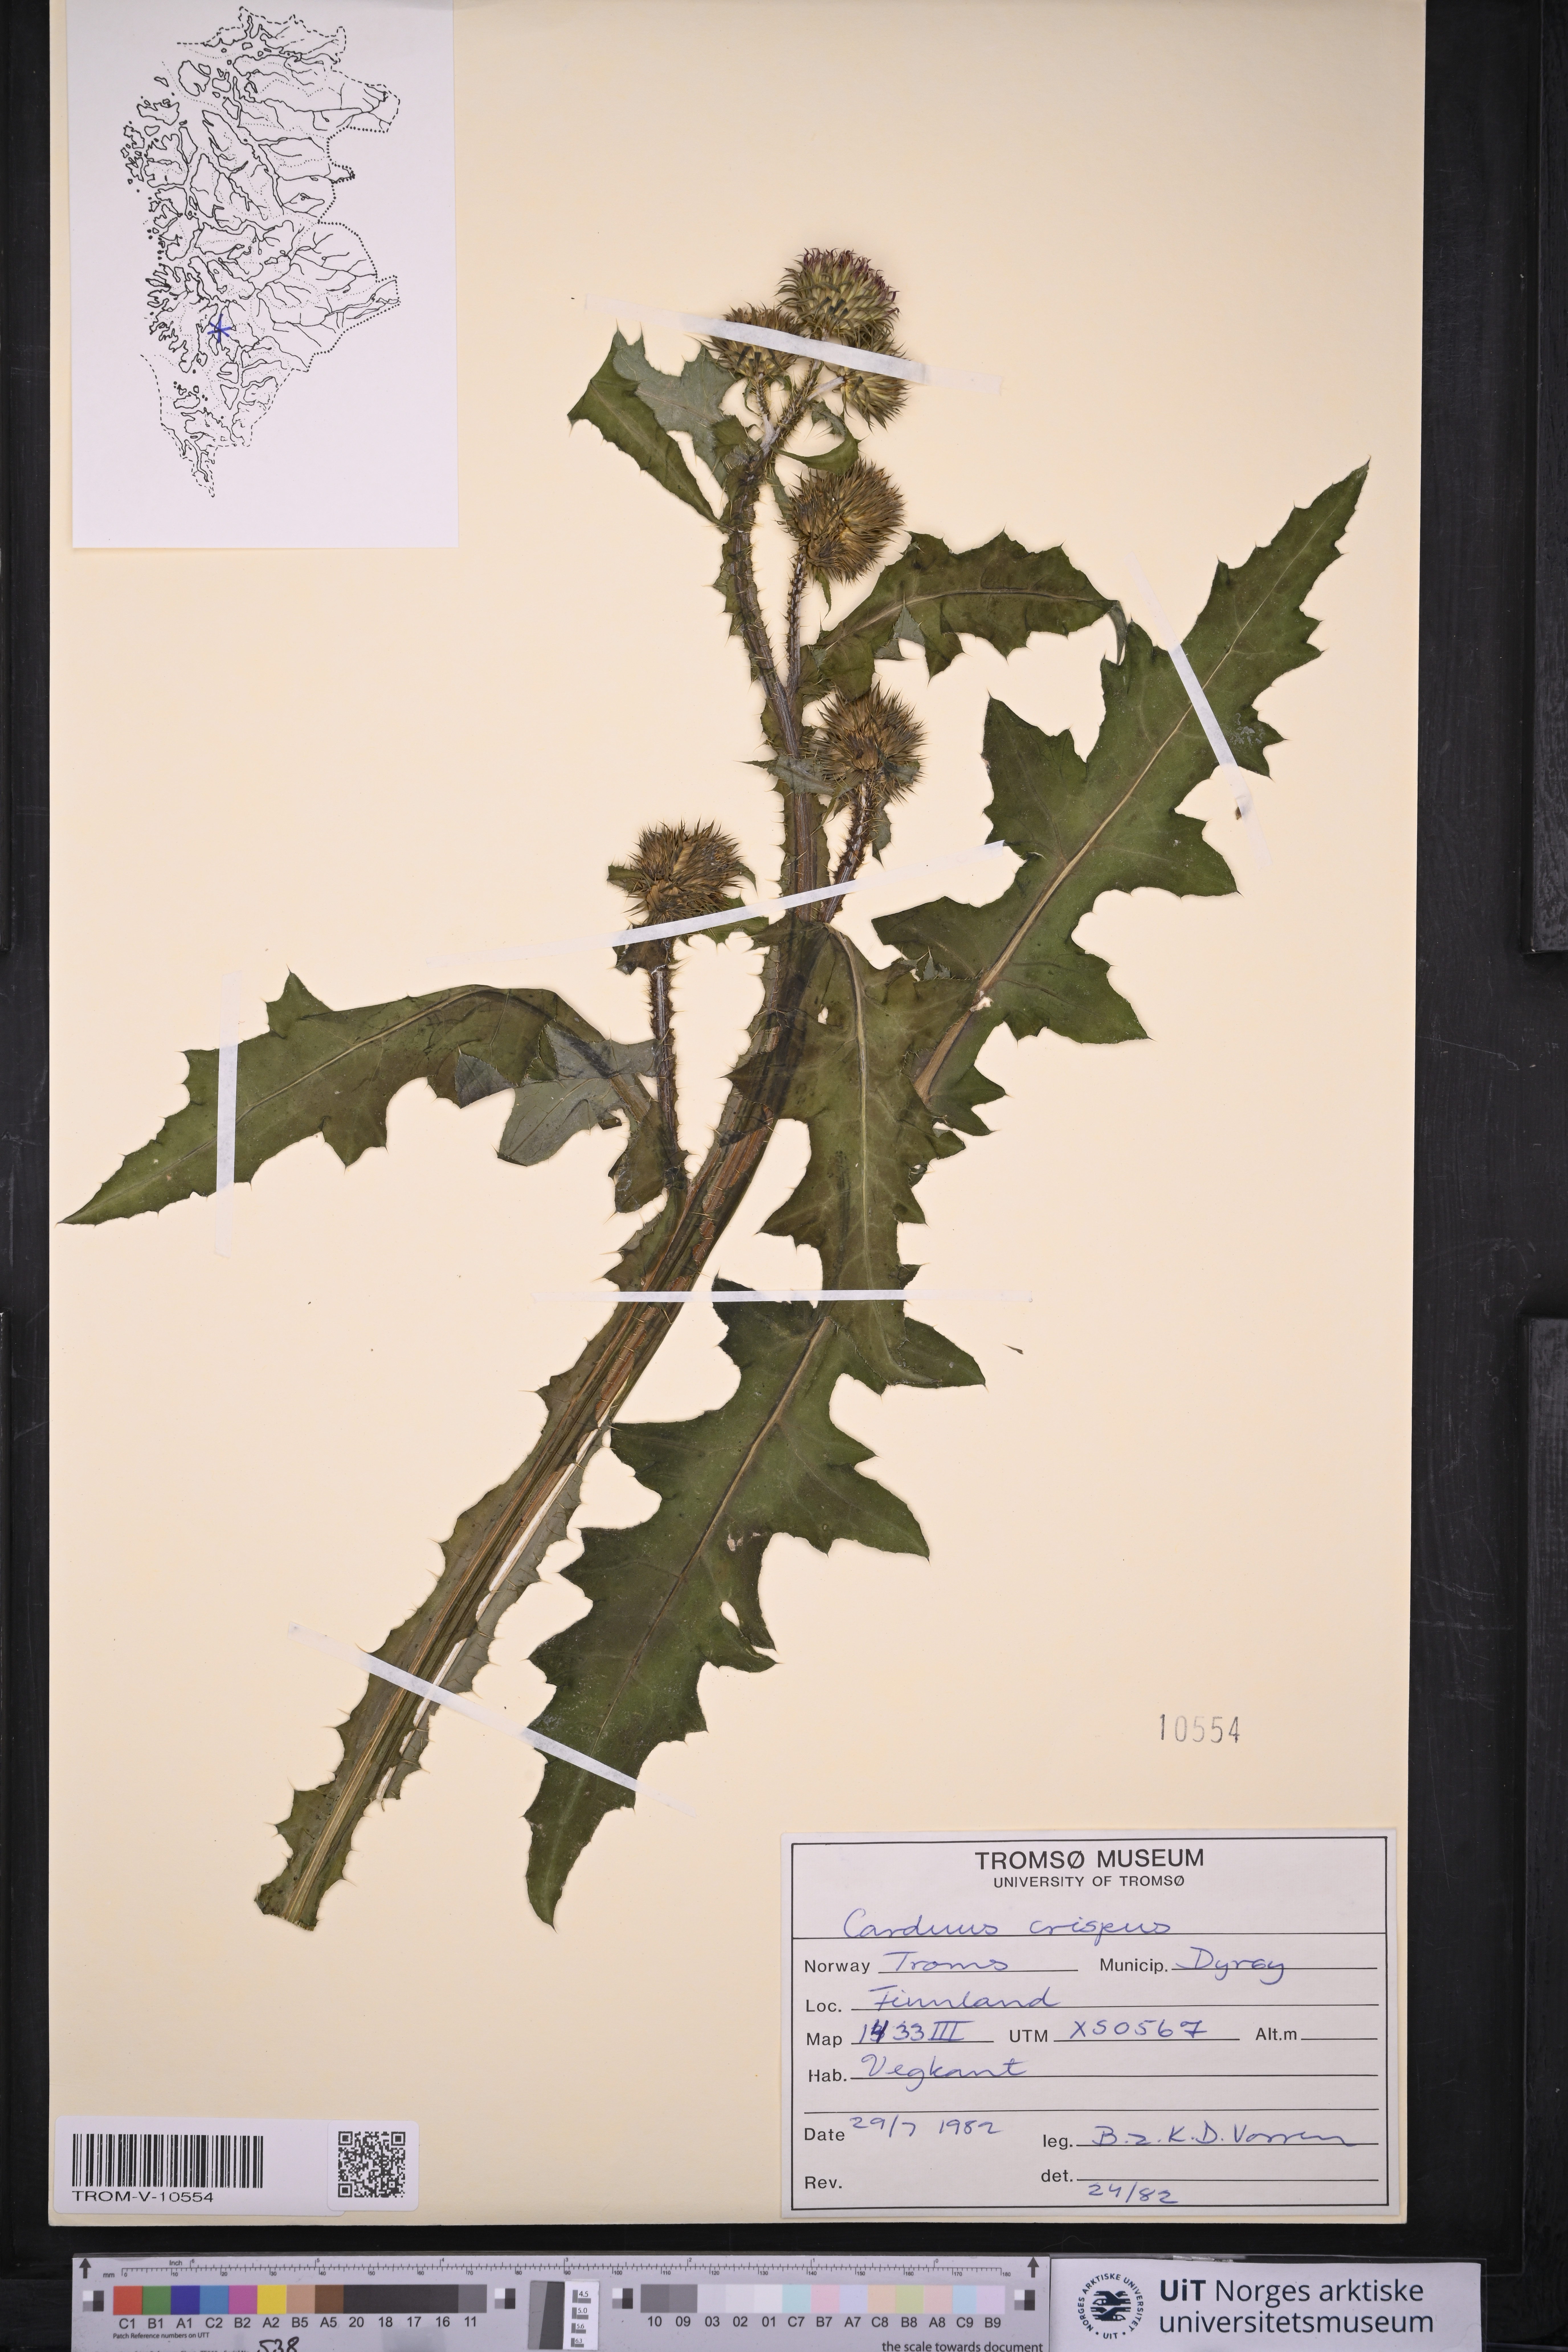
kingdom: Plantae
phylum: Tracheophyta
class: Magnoliopsida
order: Asterales
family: Asteraceae
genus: Carduus
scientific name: Carduus crispus
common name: Welted thistle
